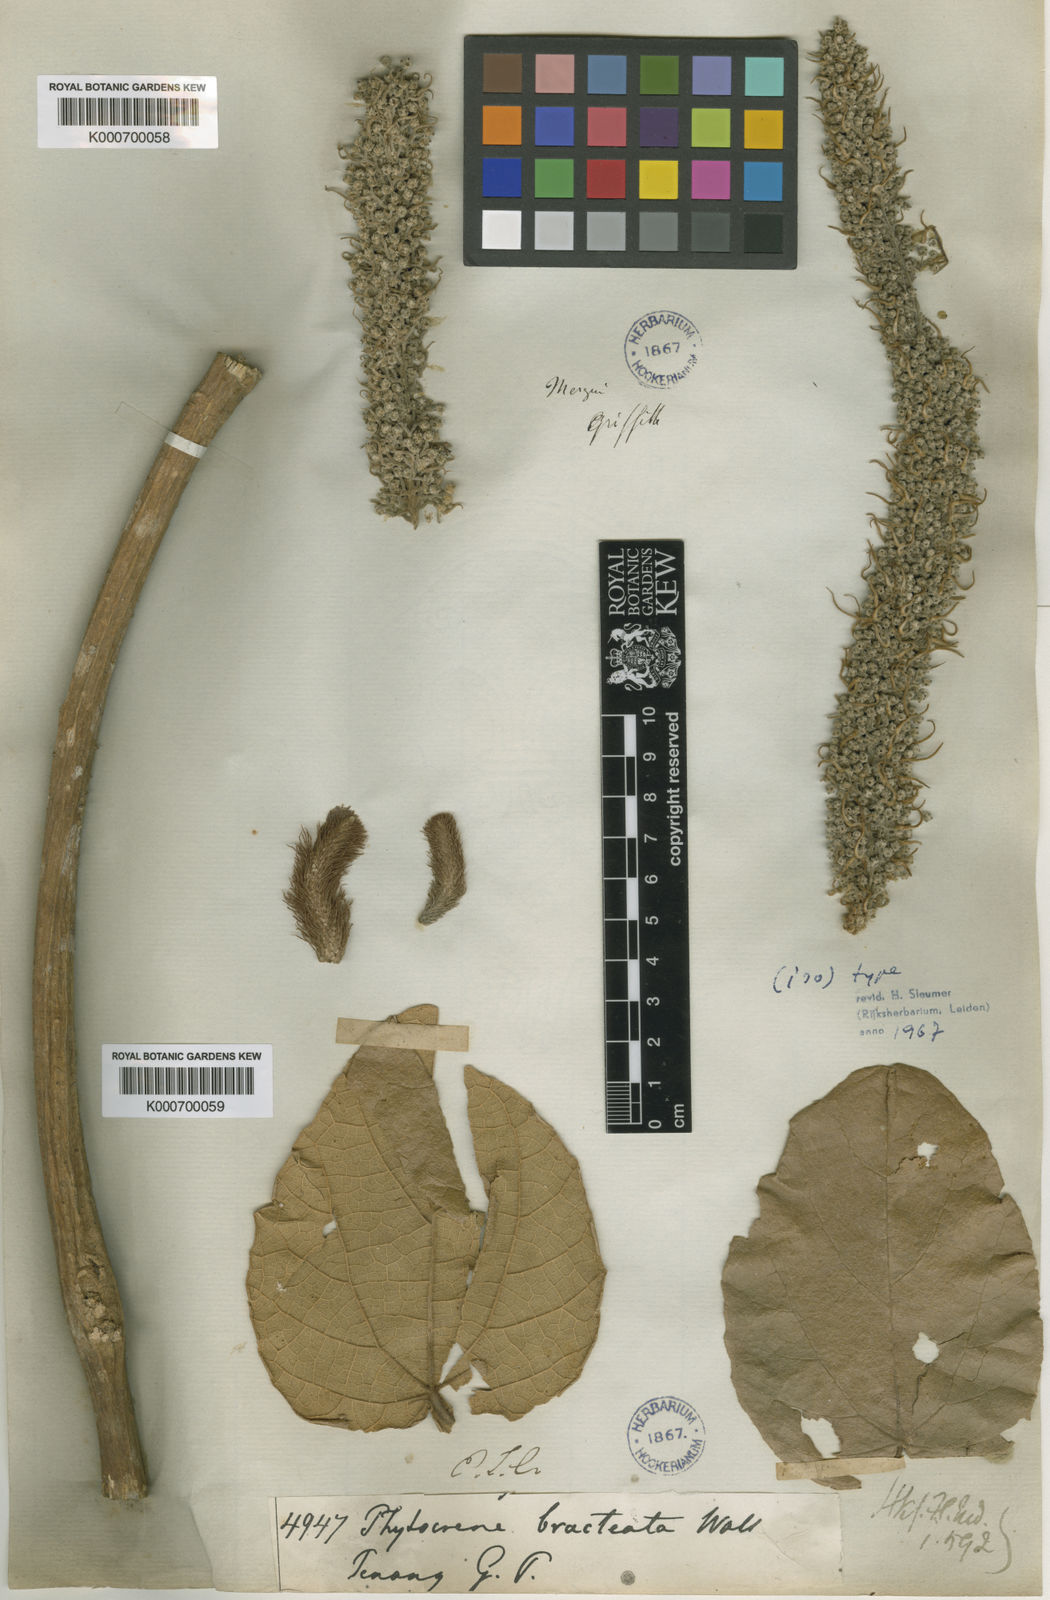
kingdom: Plantae
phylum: Tracheophyta
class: Magnoliopsida
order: Icacinales
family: Icacinaceae
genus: Phytocrene
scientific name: Phytocrene bracteata
